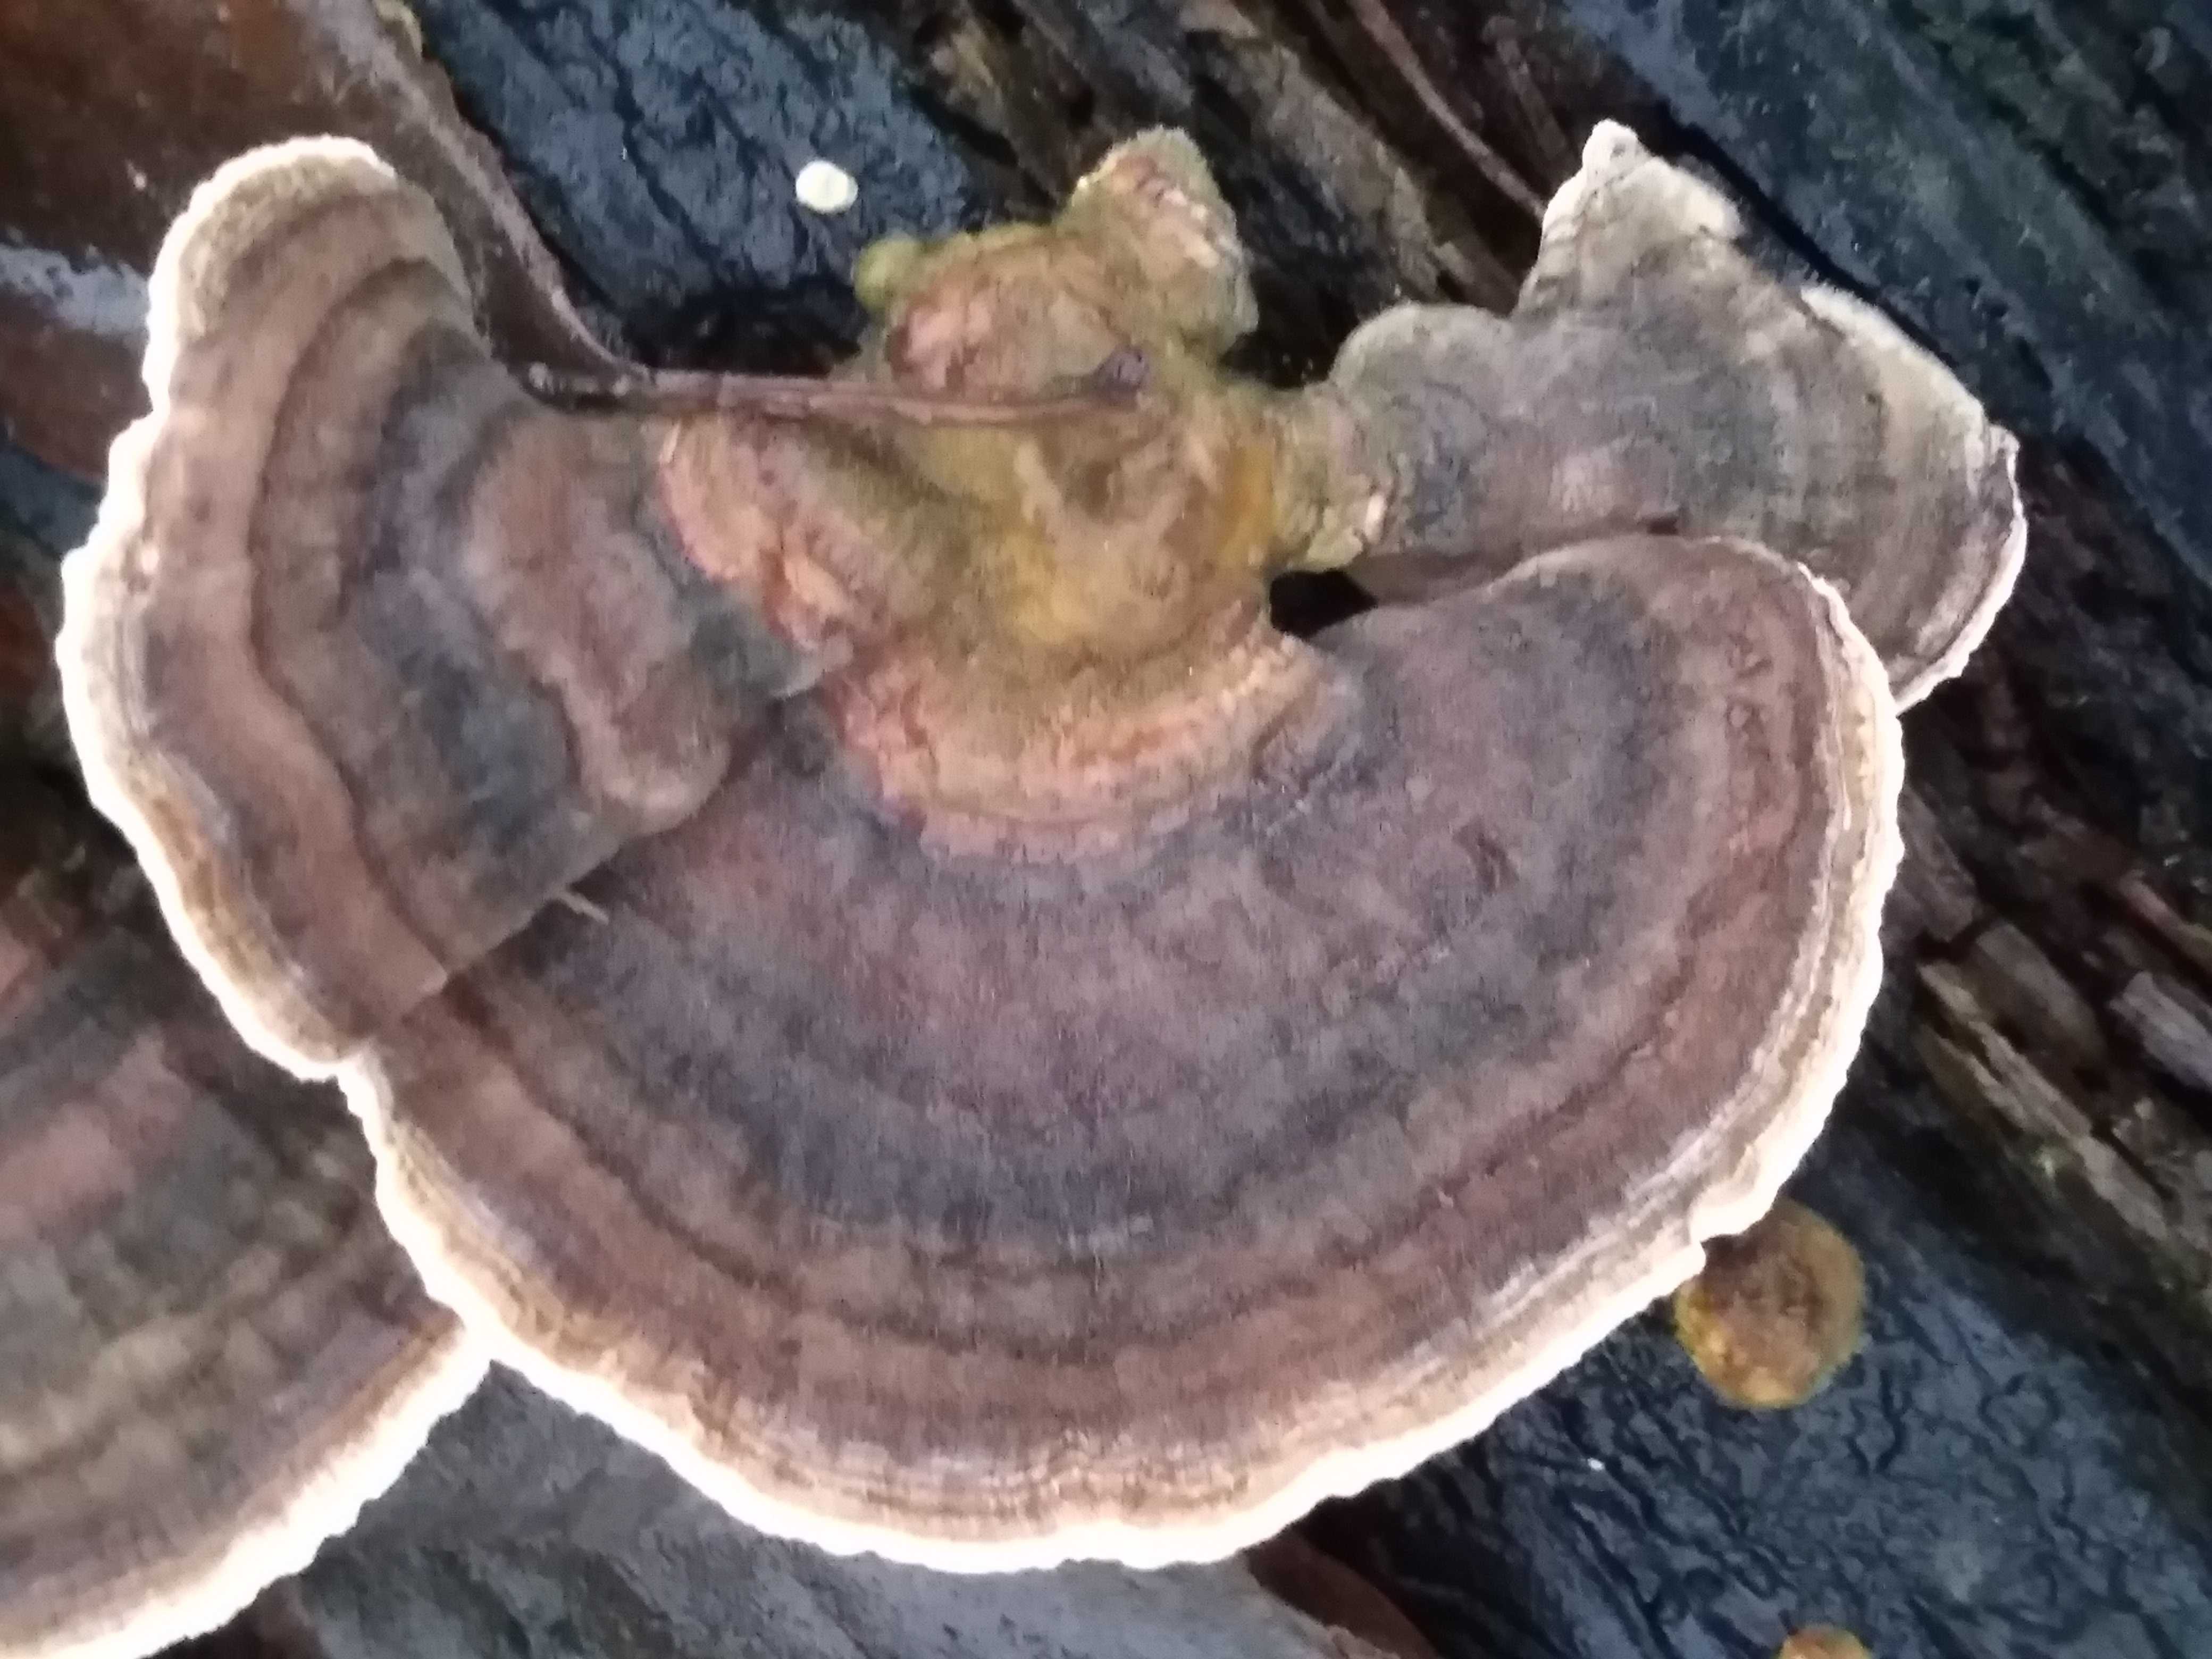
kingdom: Fungi
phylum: Basidiomycota
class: Agaricomycetes
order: Polyporales
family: Polyporaceae
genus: Trametes
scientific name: Trametes versicolor
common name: broget læderporesvamp
